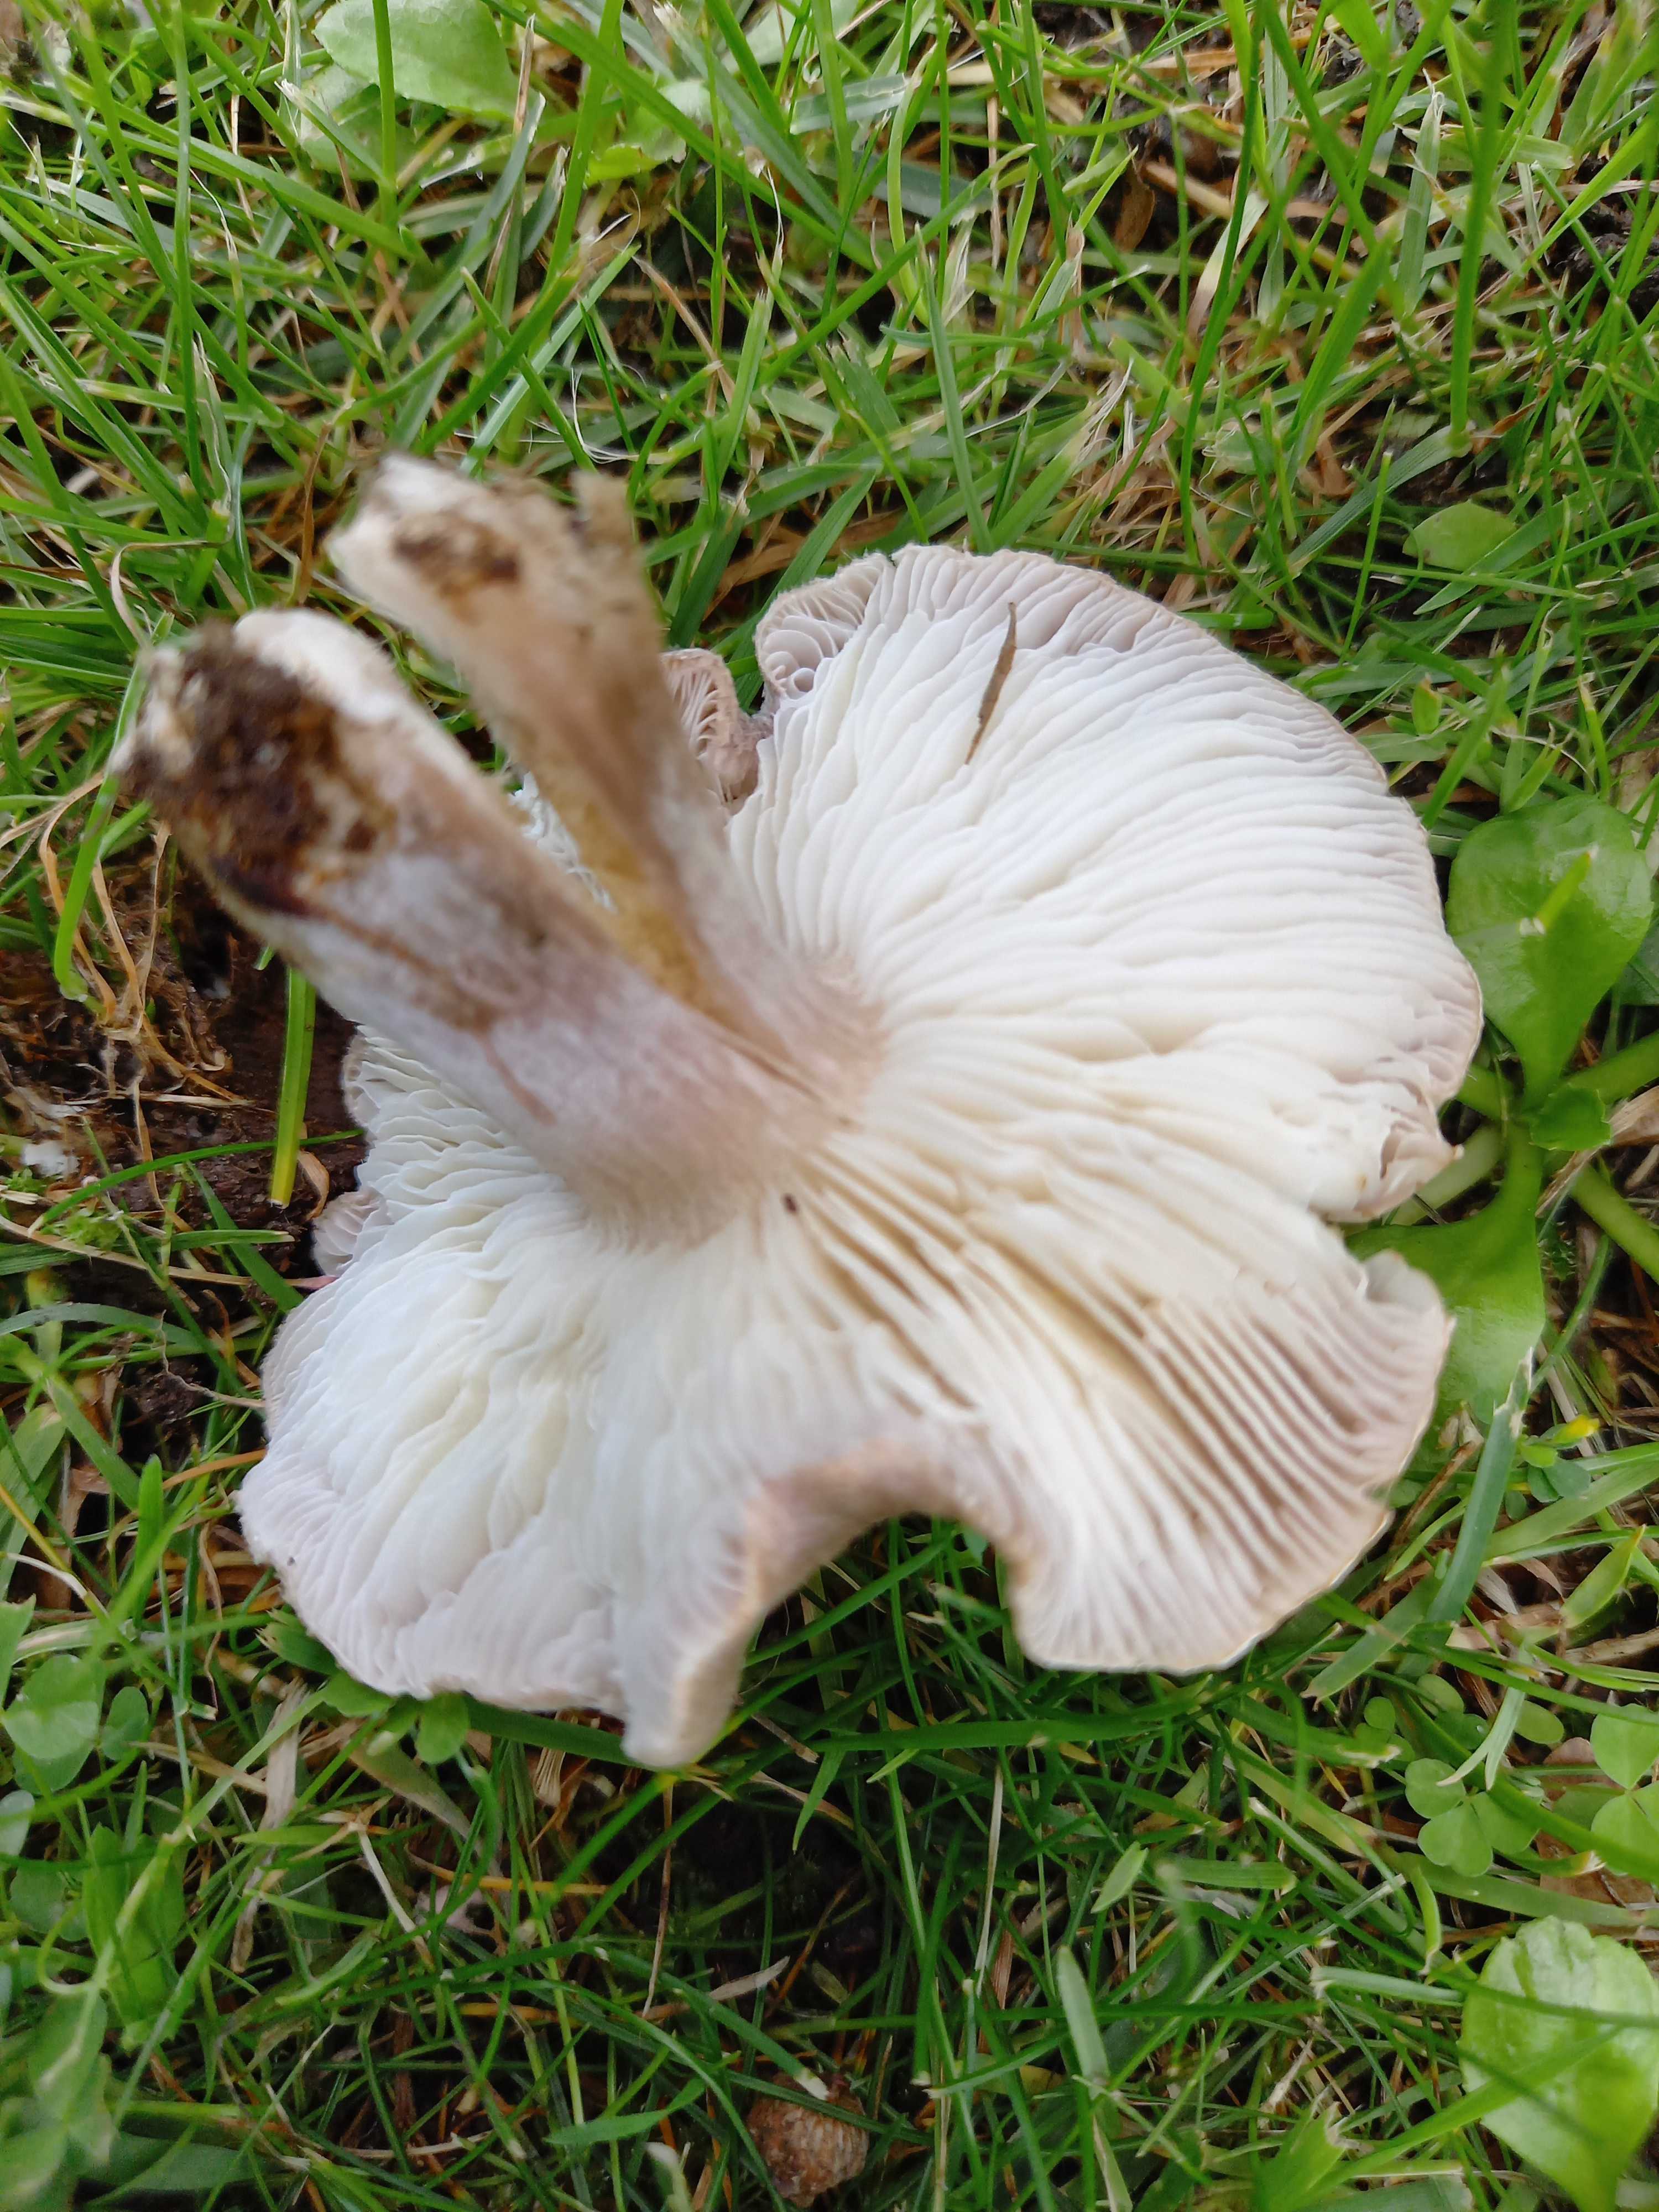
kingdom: Fungi
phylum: Basidiomycota
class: Agaricomycetes
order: Agaricales
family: Tricholomataceae
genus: Tricholoma
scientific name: Tricholoma
